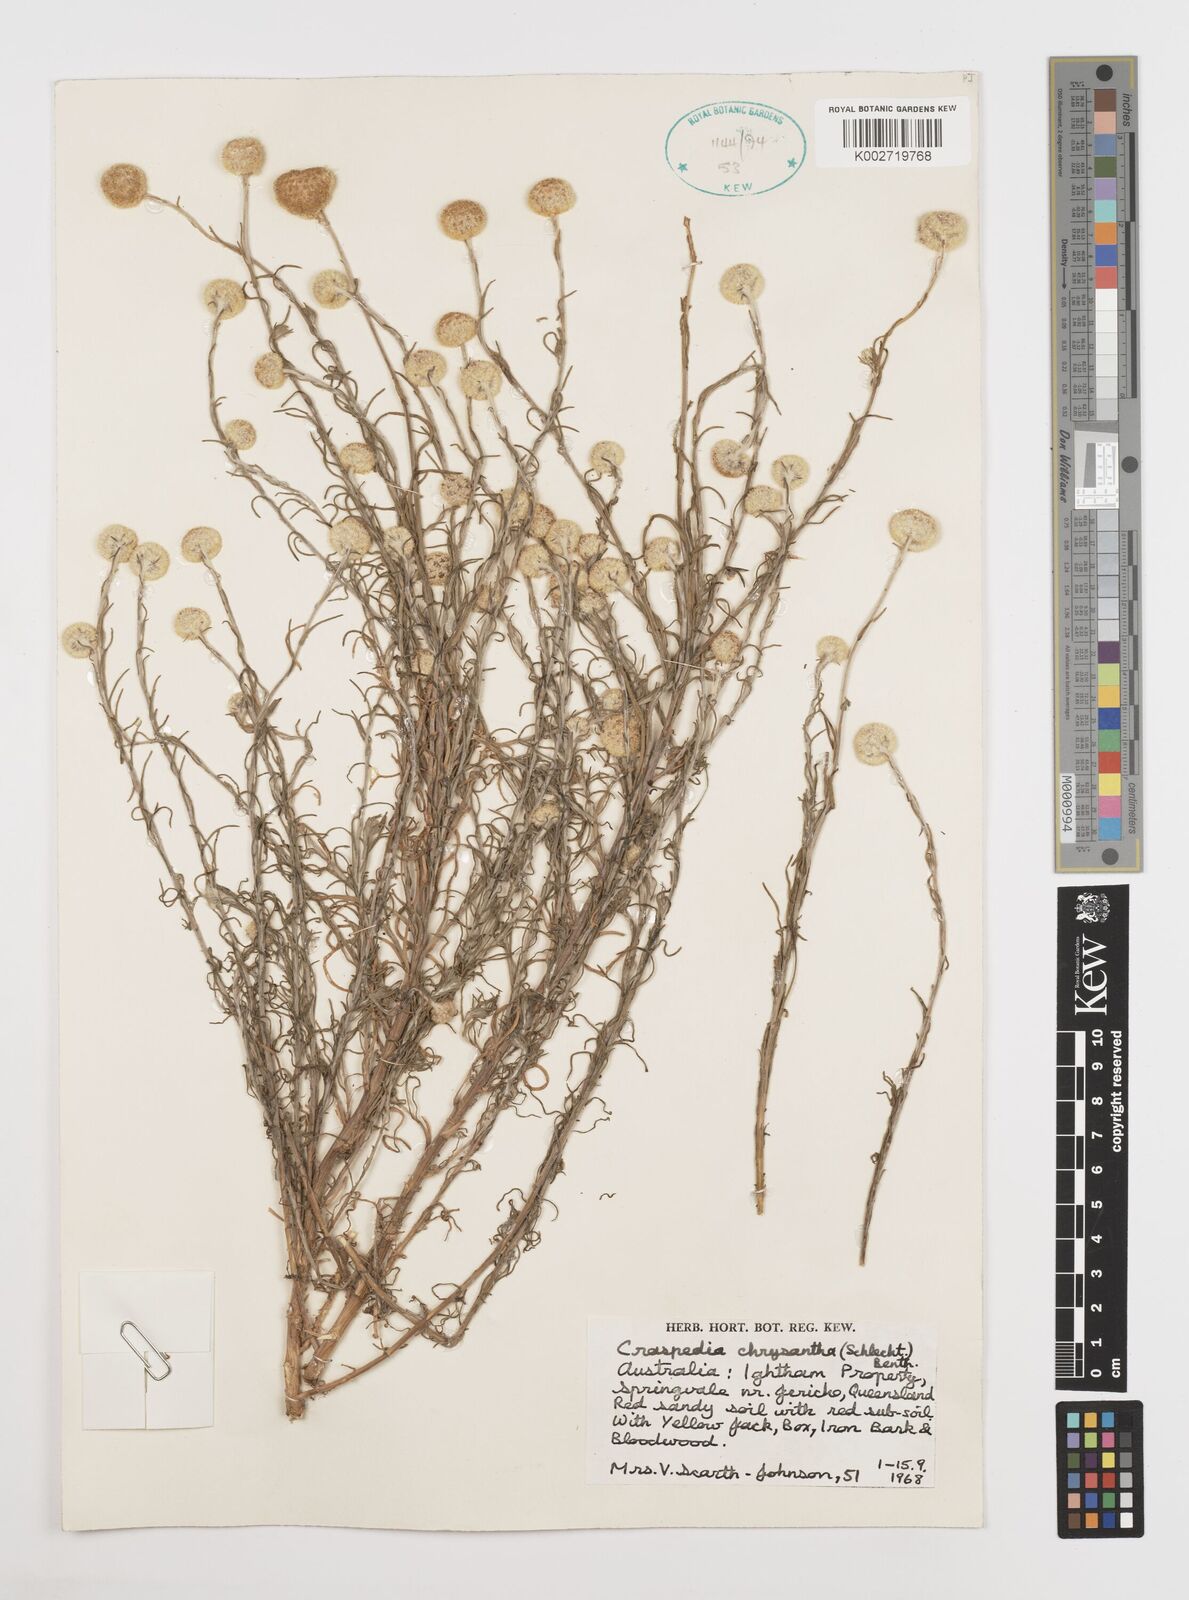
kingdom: Plantae
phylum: Tracheophyta
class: Magnoliopsida
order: Asterales
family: Asteraceae
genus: Pycnosorus
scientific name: Pycnosorus chrysanthus
